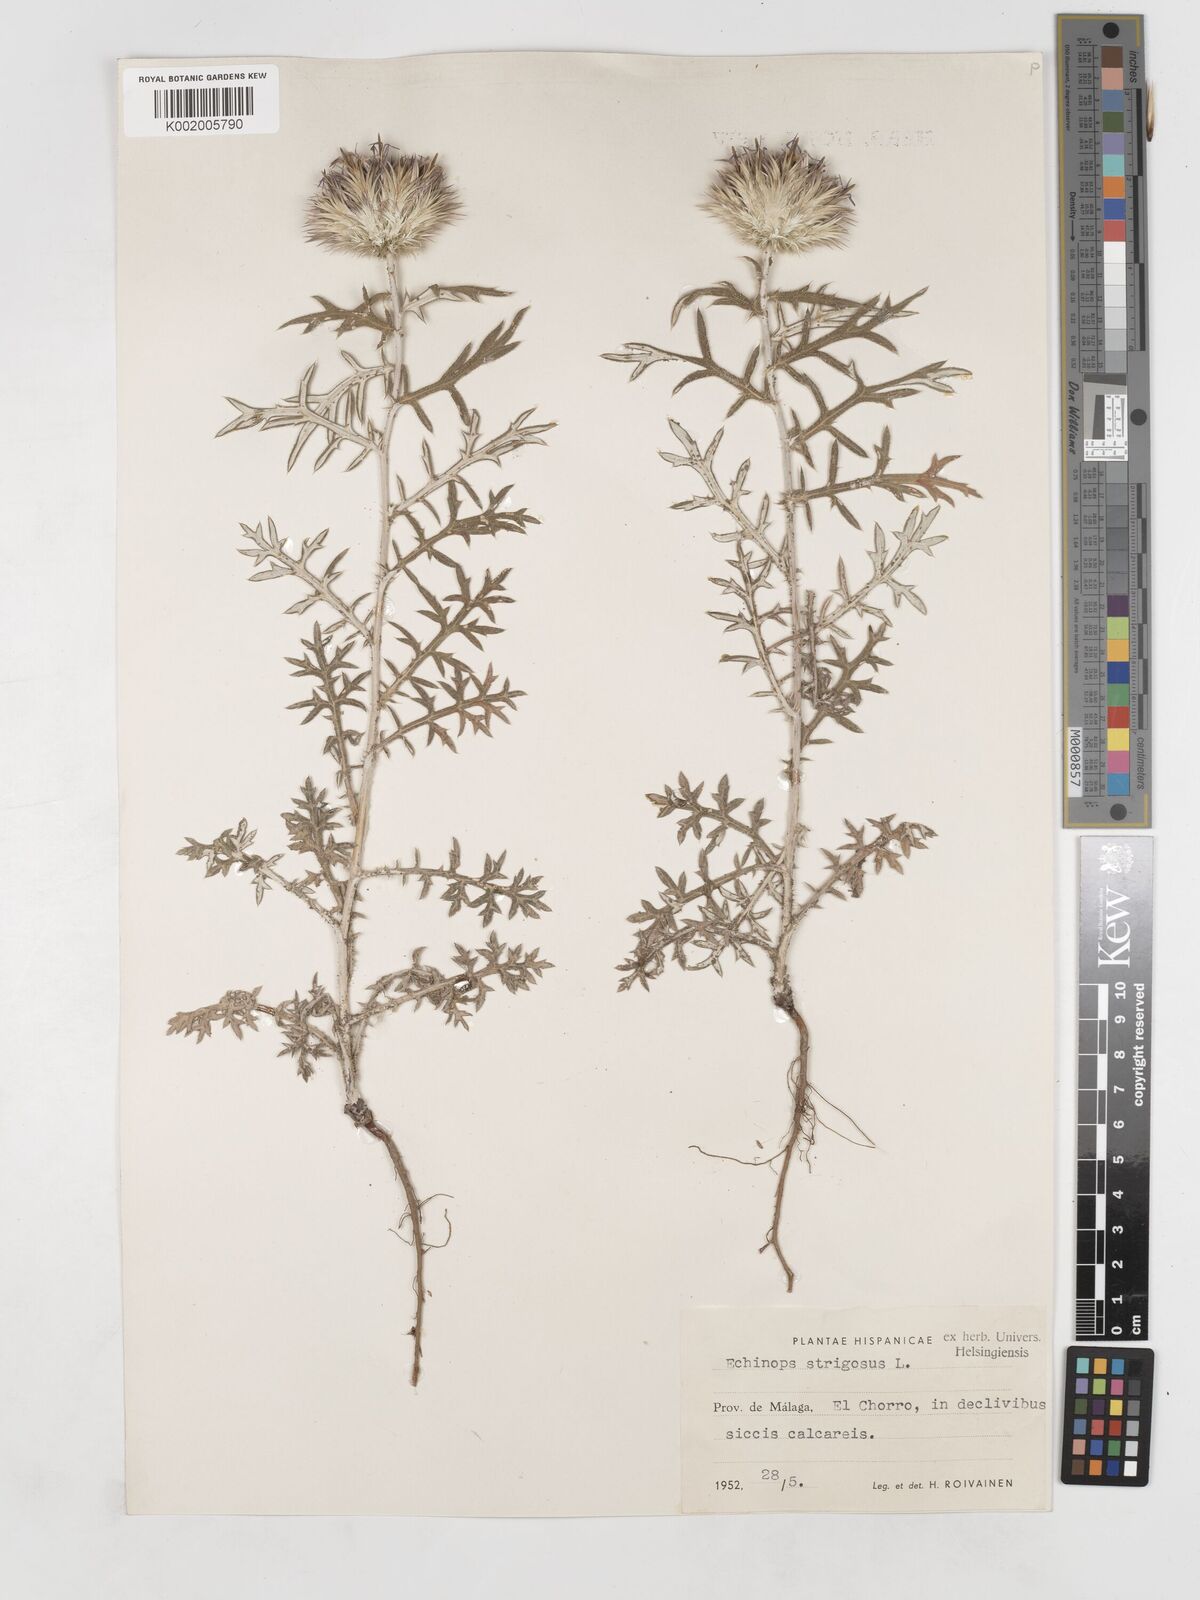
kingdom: Plantae
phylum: Tracheophyta
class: Magnoliopsida
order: Asterales
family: Asteraceae
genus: Echinops
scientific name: Echinops strigosus
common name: Rough-leaf globe thistle
